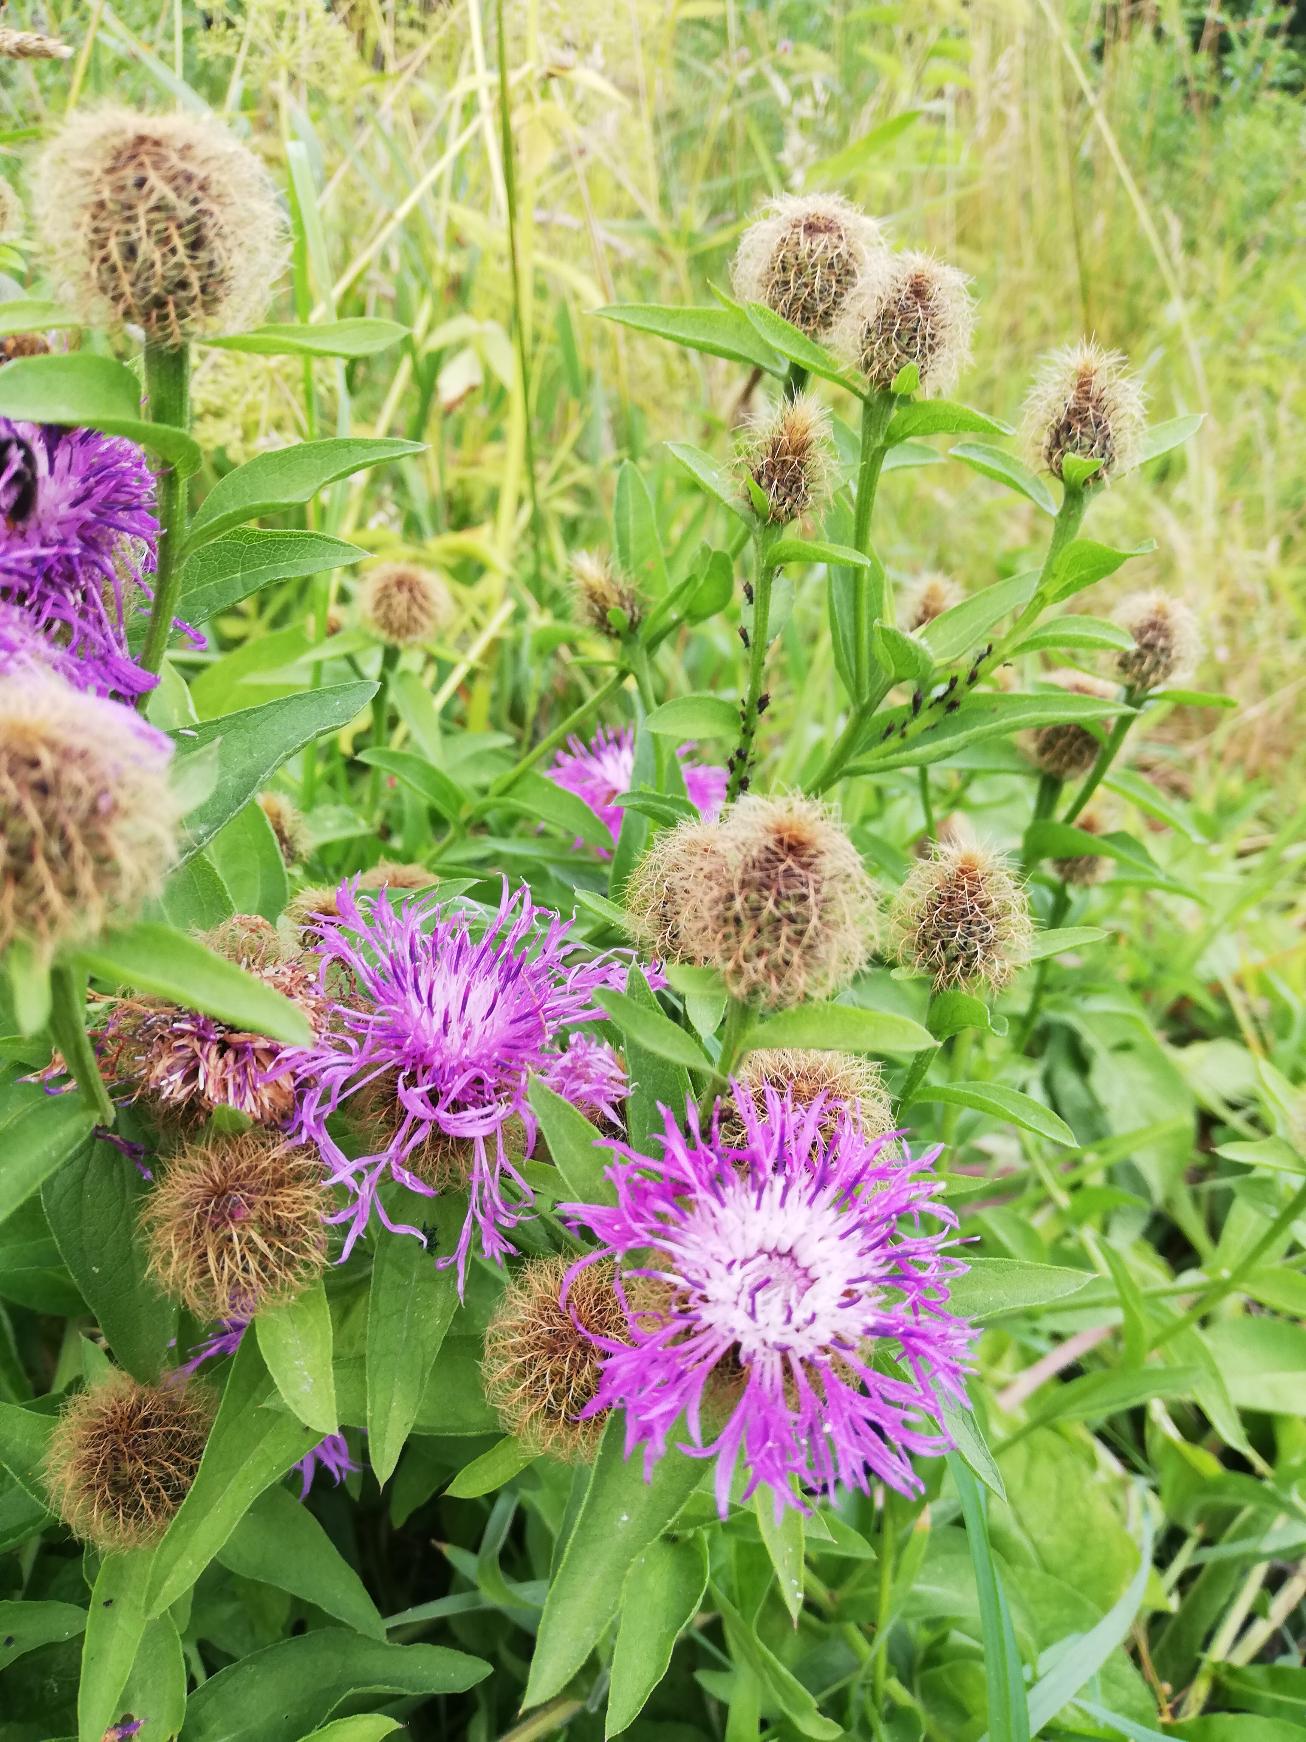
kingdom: Plantae
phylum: Tracheophyta
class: Magnoliopsida
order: Asterales
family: Asteraceae
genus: Centaurea
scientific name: Centaurea pseudophrygia
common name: Fjer-knopurt
